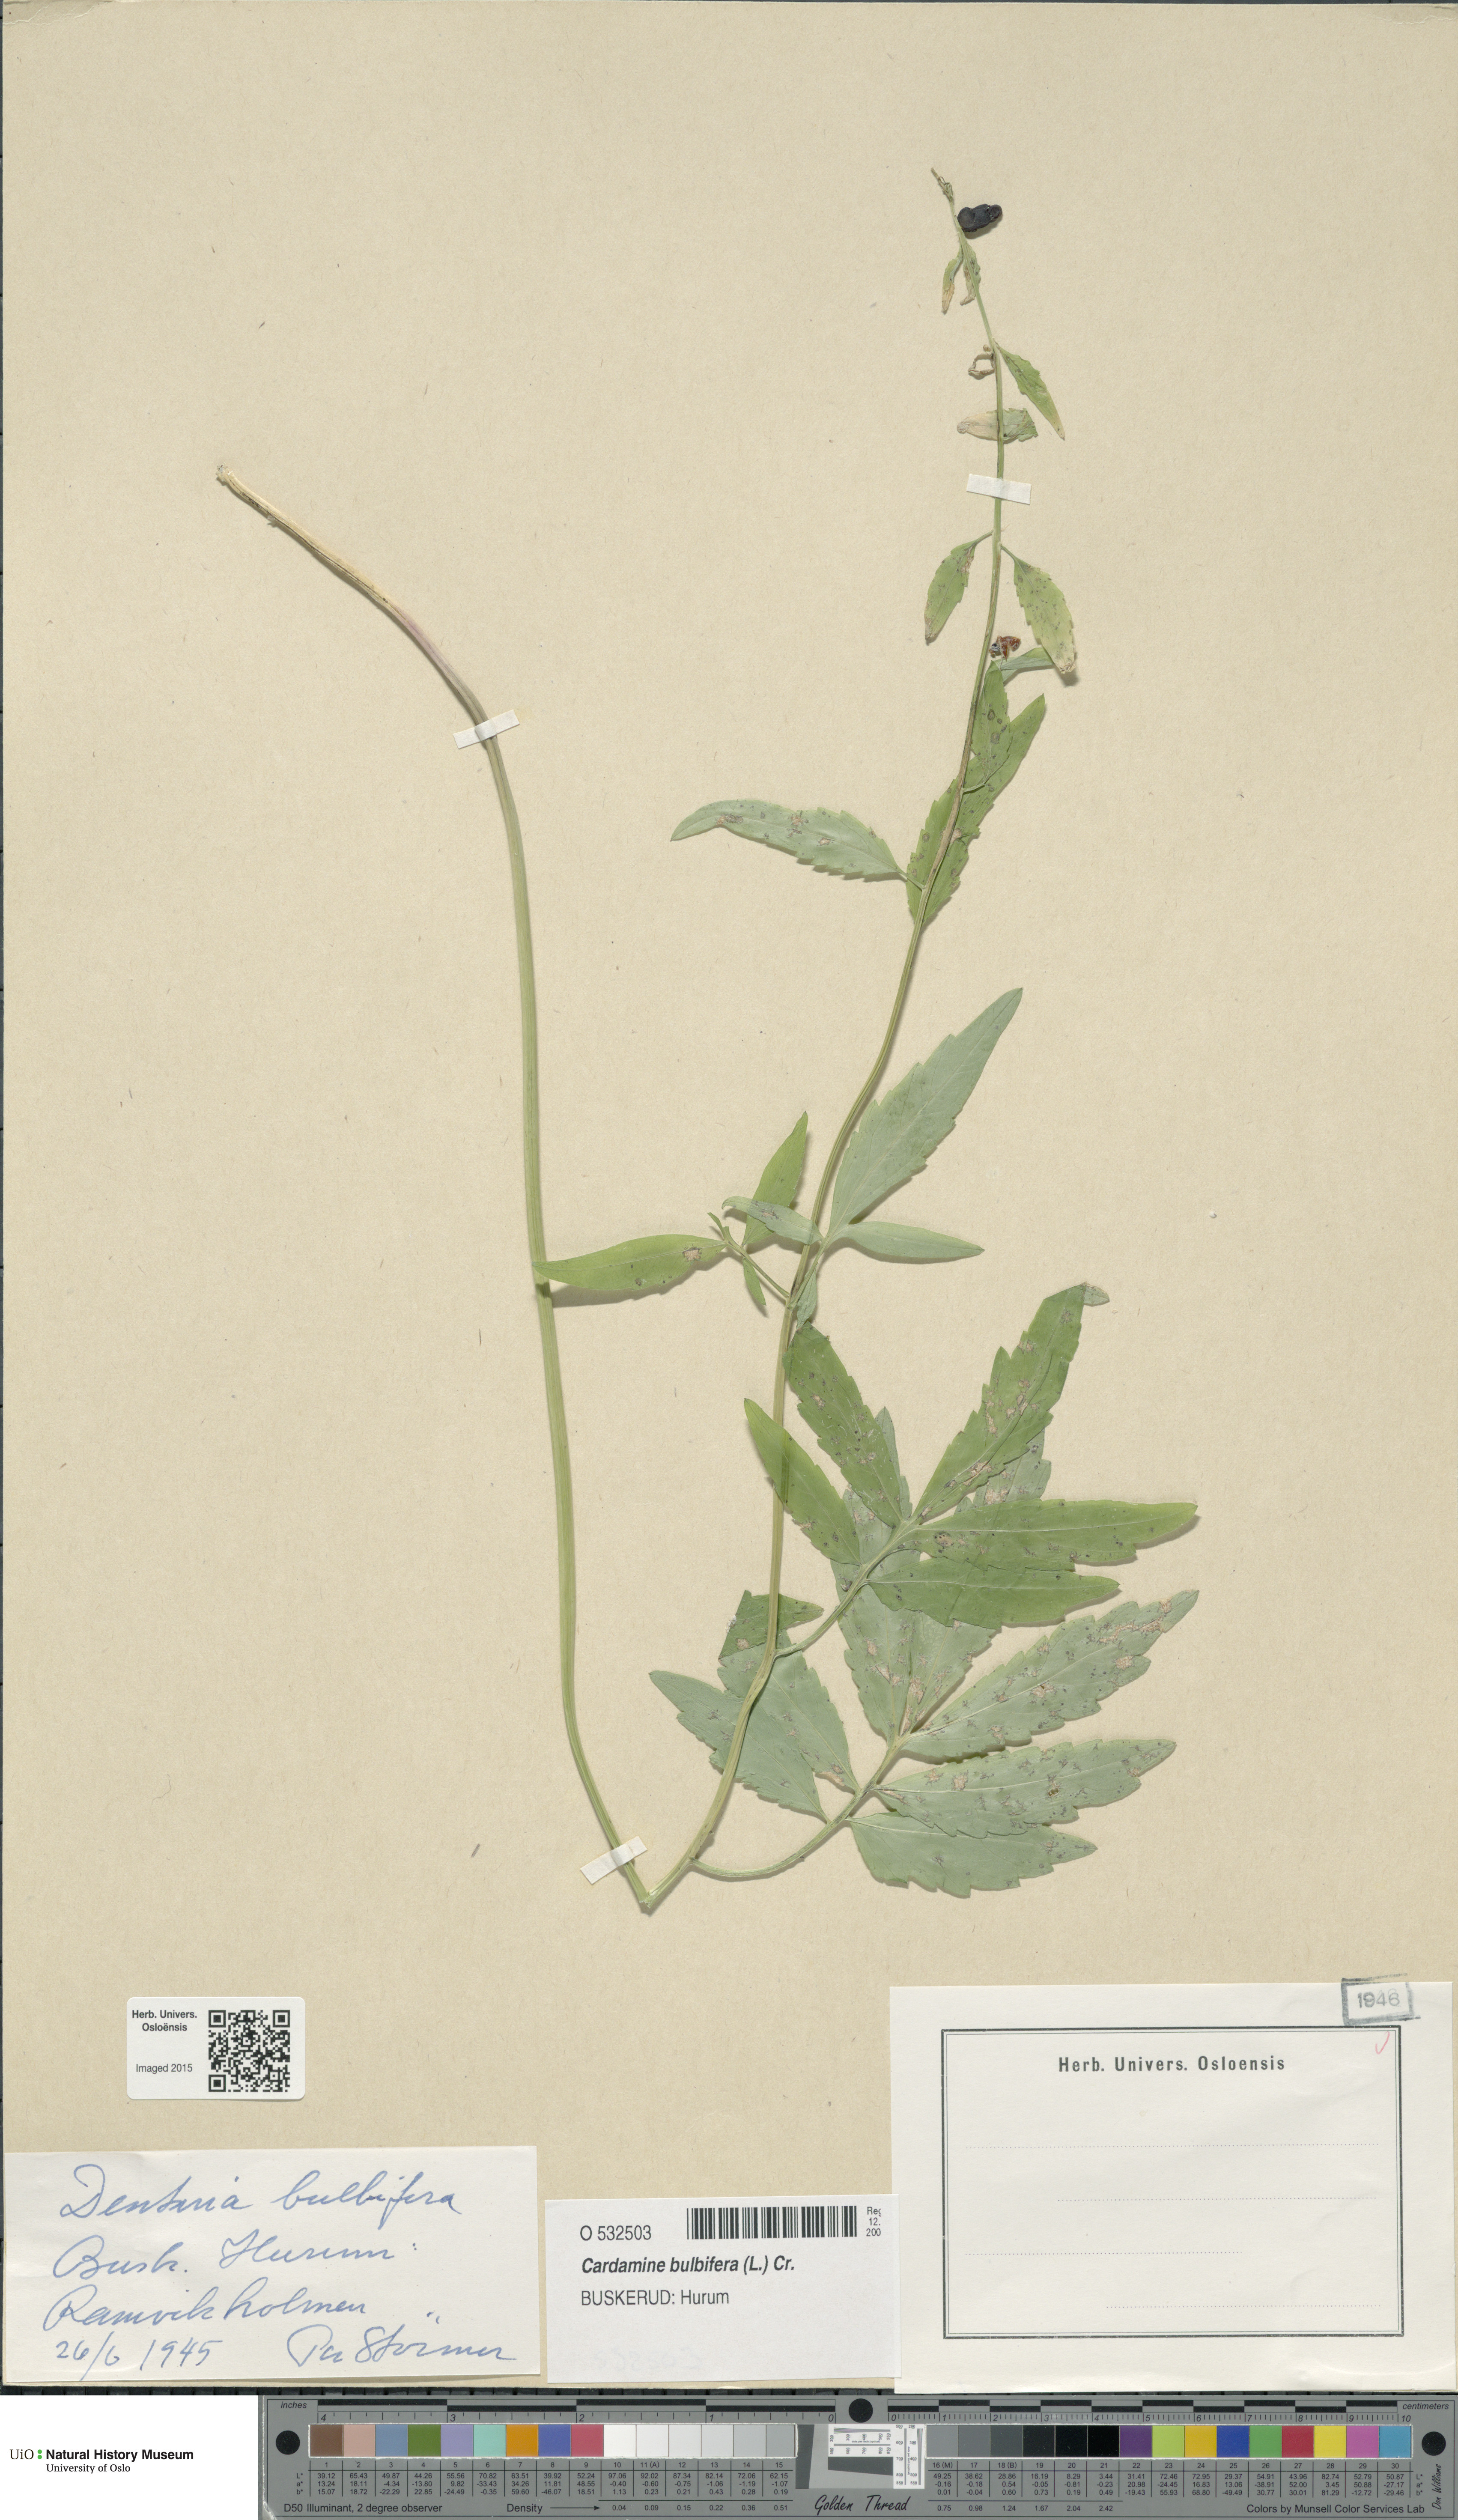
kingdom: Plantae
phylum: Tracheophyta
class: Magnoliopsida
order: Brassicales
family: Brassicaceae
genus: Cardamine
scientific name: Cardamine bulbifera
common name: Coralroot bittercress
